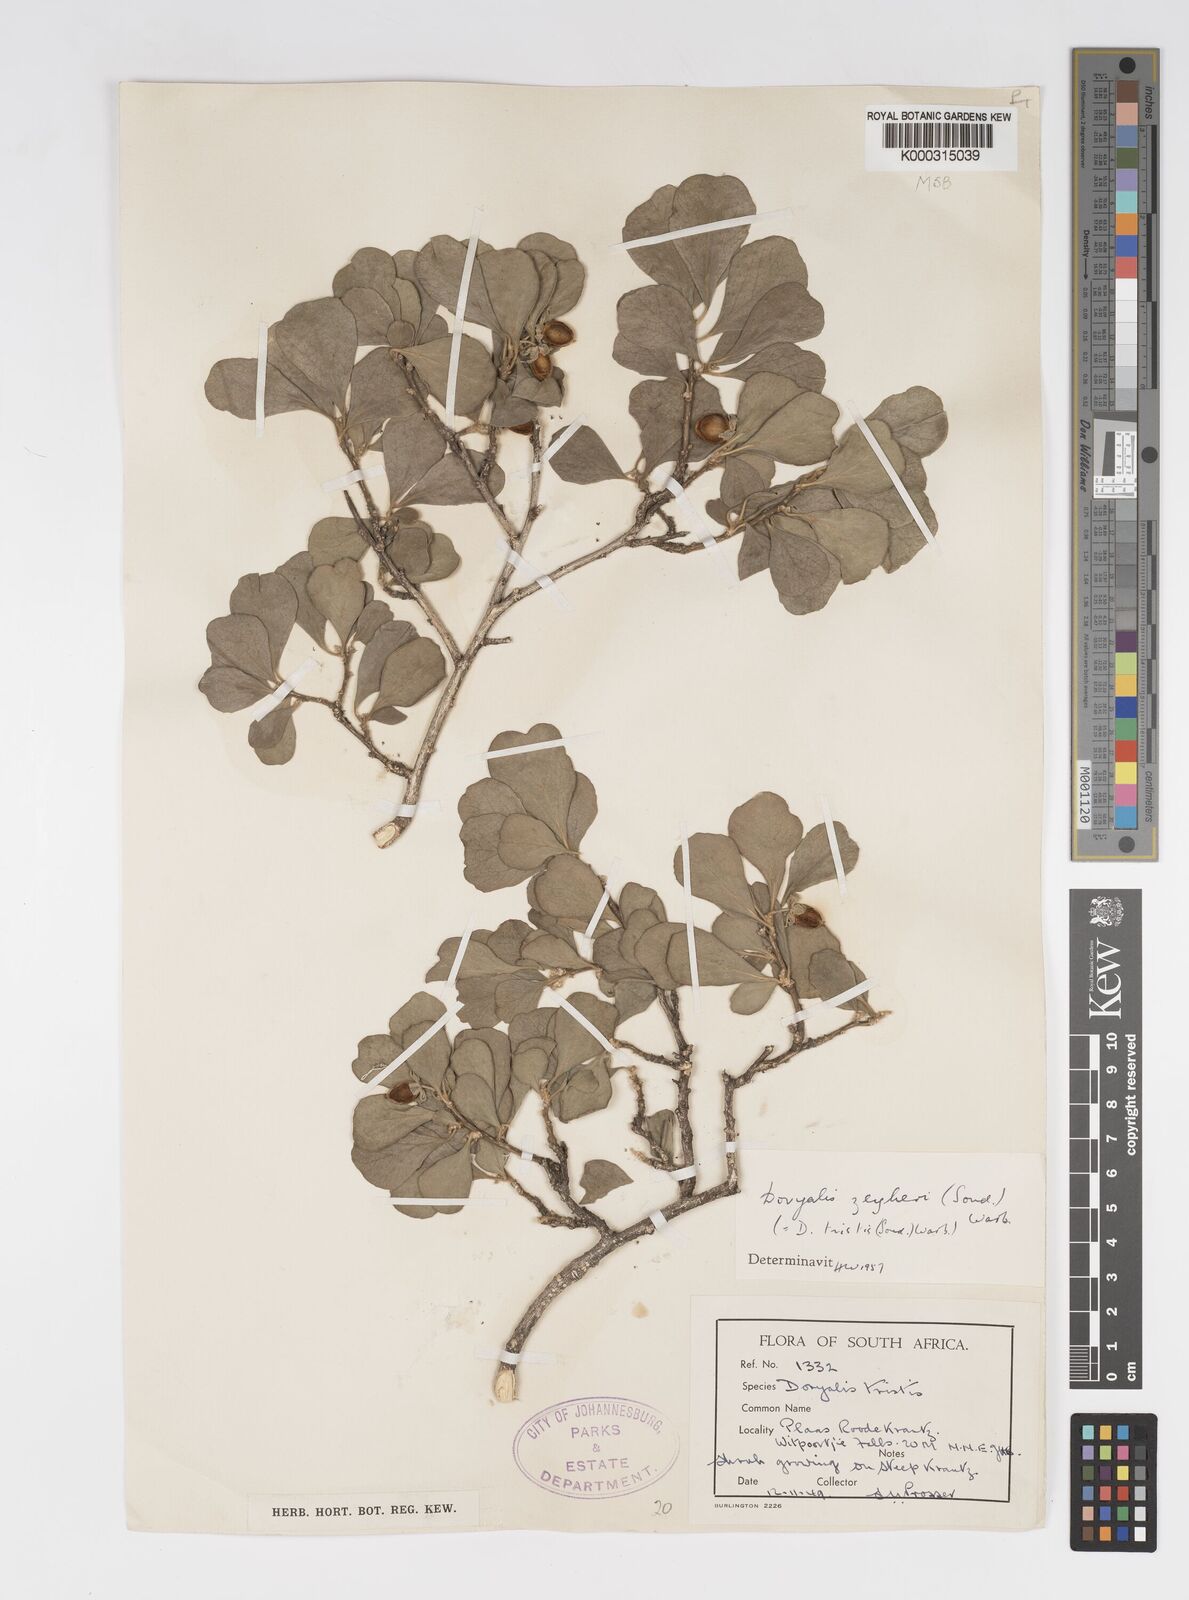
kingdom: Plantae
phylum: Tracheophyta
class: Magnoliopsida
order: Malpighiales
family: Salicaceae
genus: Dovyalis
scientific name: Dovyalis zeyheri
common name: Apricot sourberry
